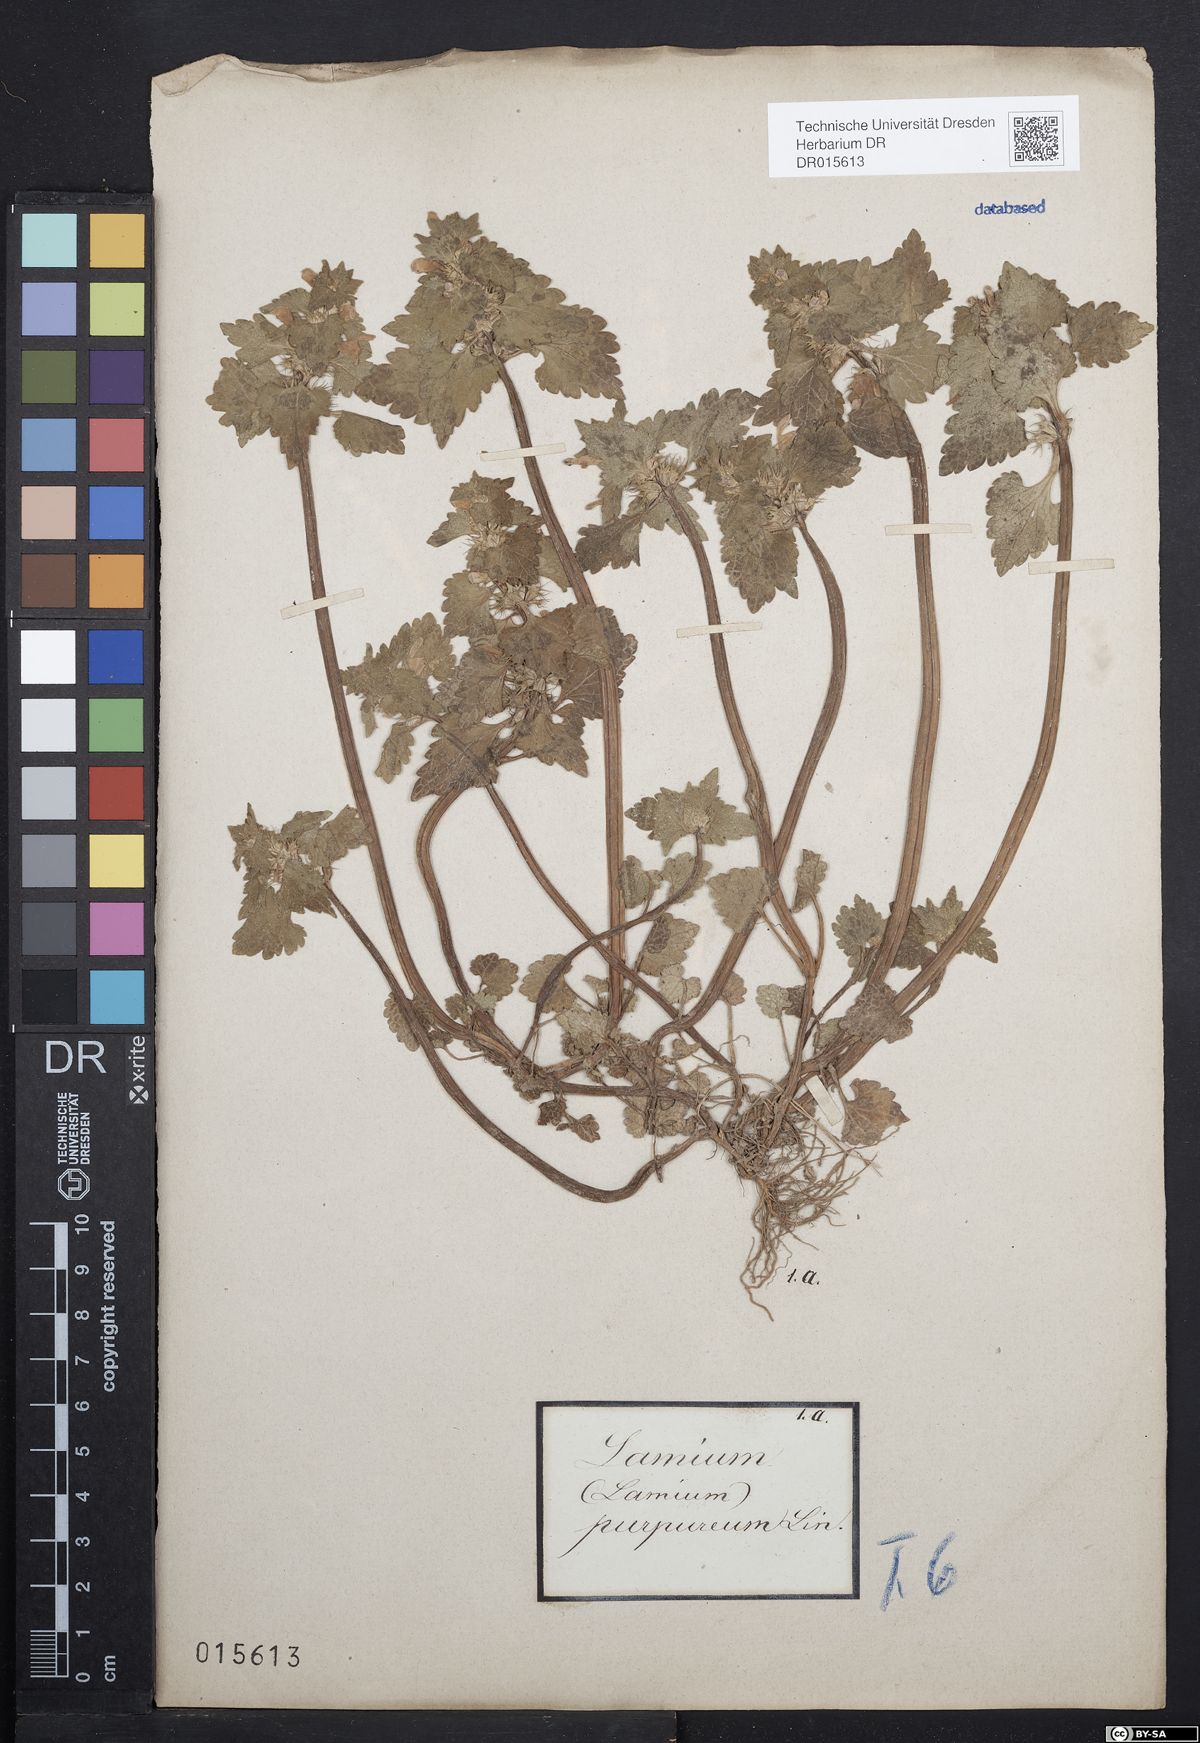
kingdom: Plantae
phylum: Tracheophyta
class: Magnoliopsida
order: Lamiales
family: Lamiaceae
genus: Lamium
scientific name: Lamium purpureum
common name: Red dead-nettle
